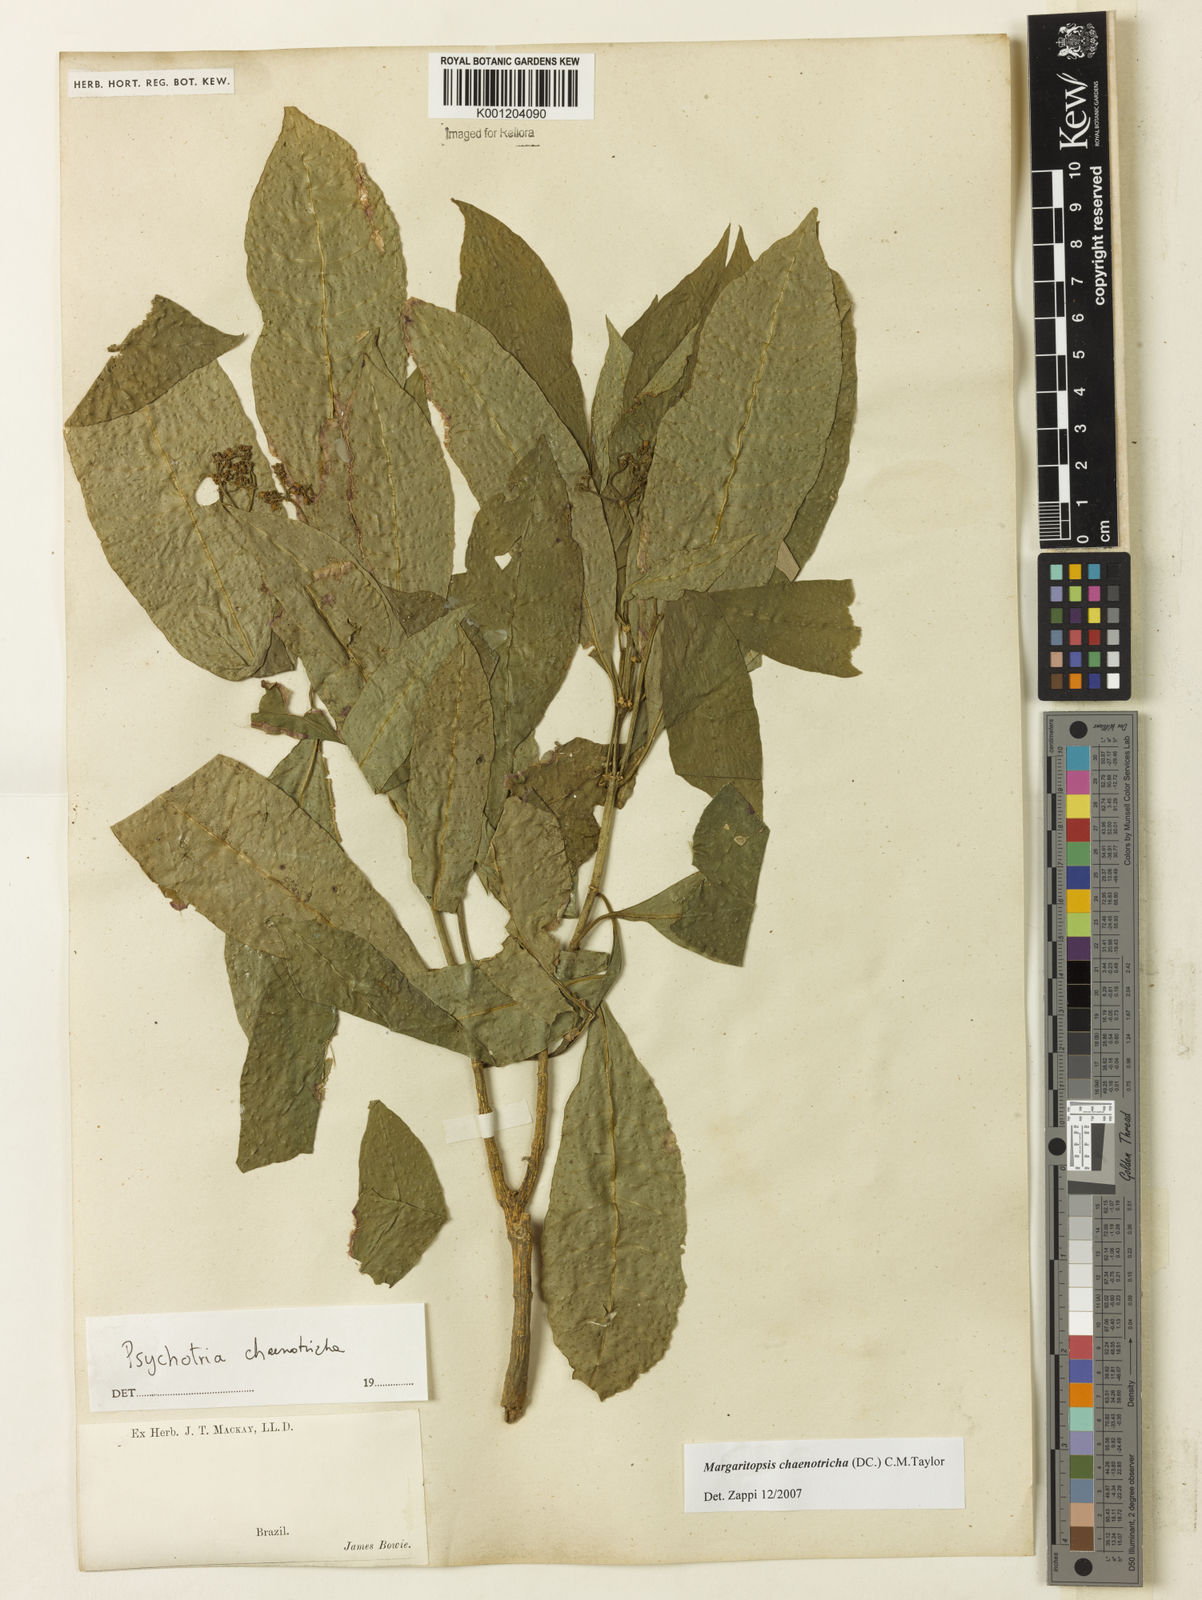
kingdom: Plantae
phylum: Tracheophyta
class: Magnoliopsida
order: Gentianales
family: Rubiaceae
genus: Eumachia
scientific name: Eumachia chaenotricha
